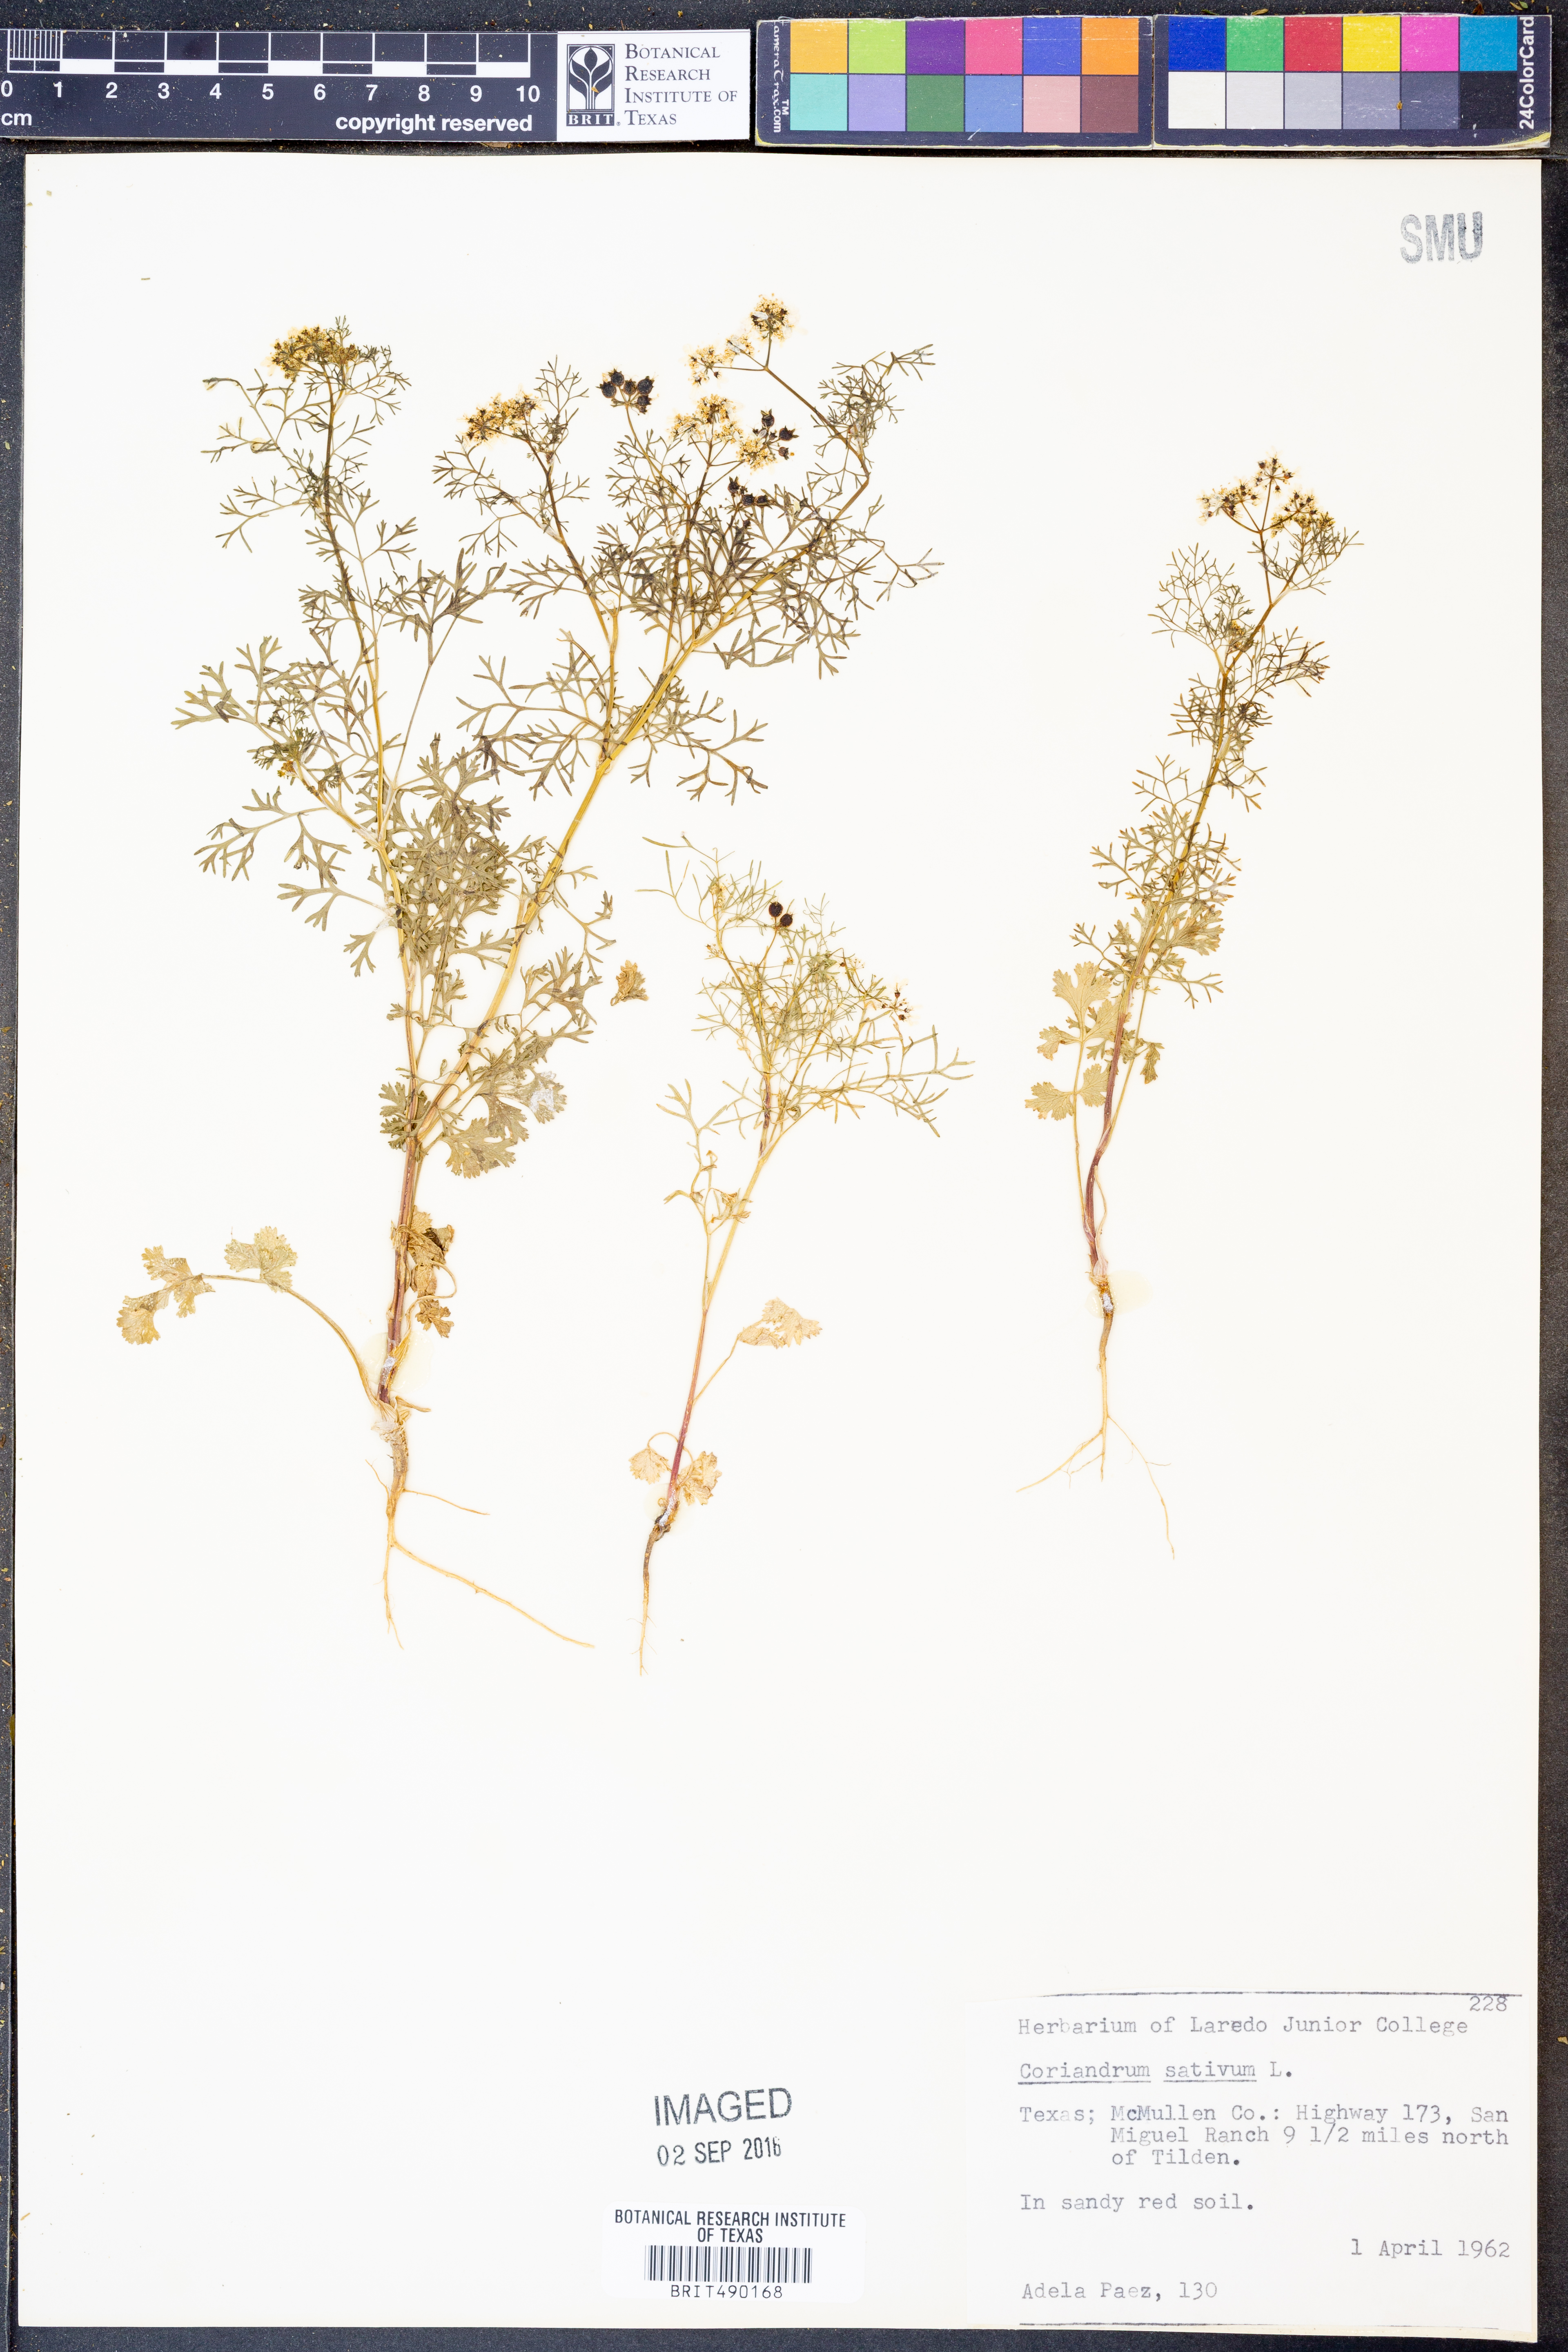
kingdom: Plantae
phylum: Tracheophyta
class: Magnoliopsida
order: Apiales
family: Apiaceae
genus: Coriandrum
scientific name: Coriandrum sativum
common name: Coriander
